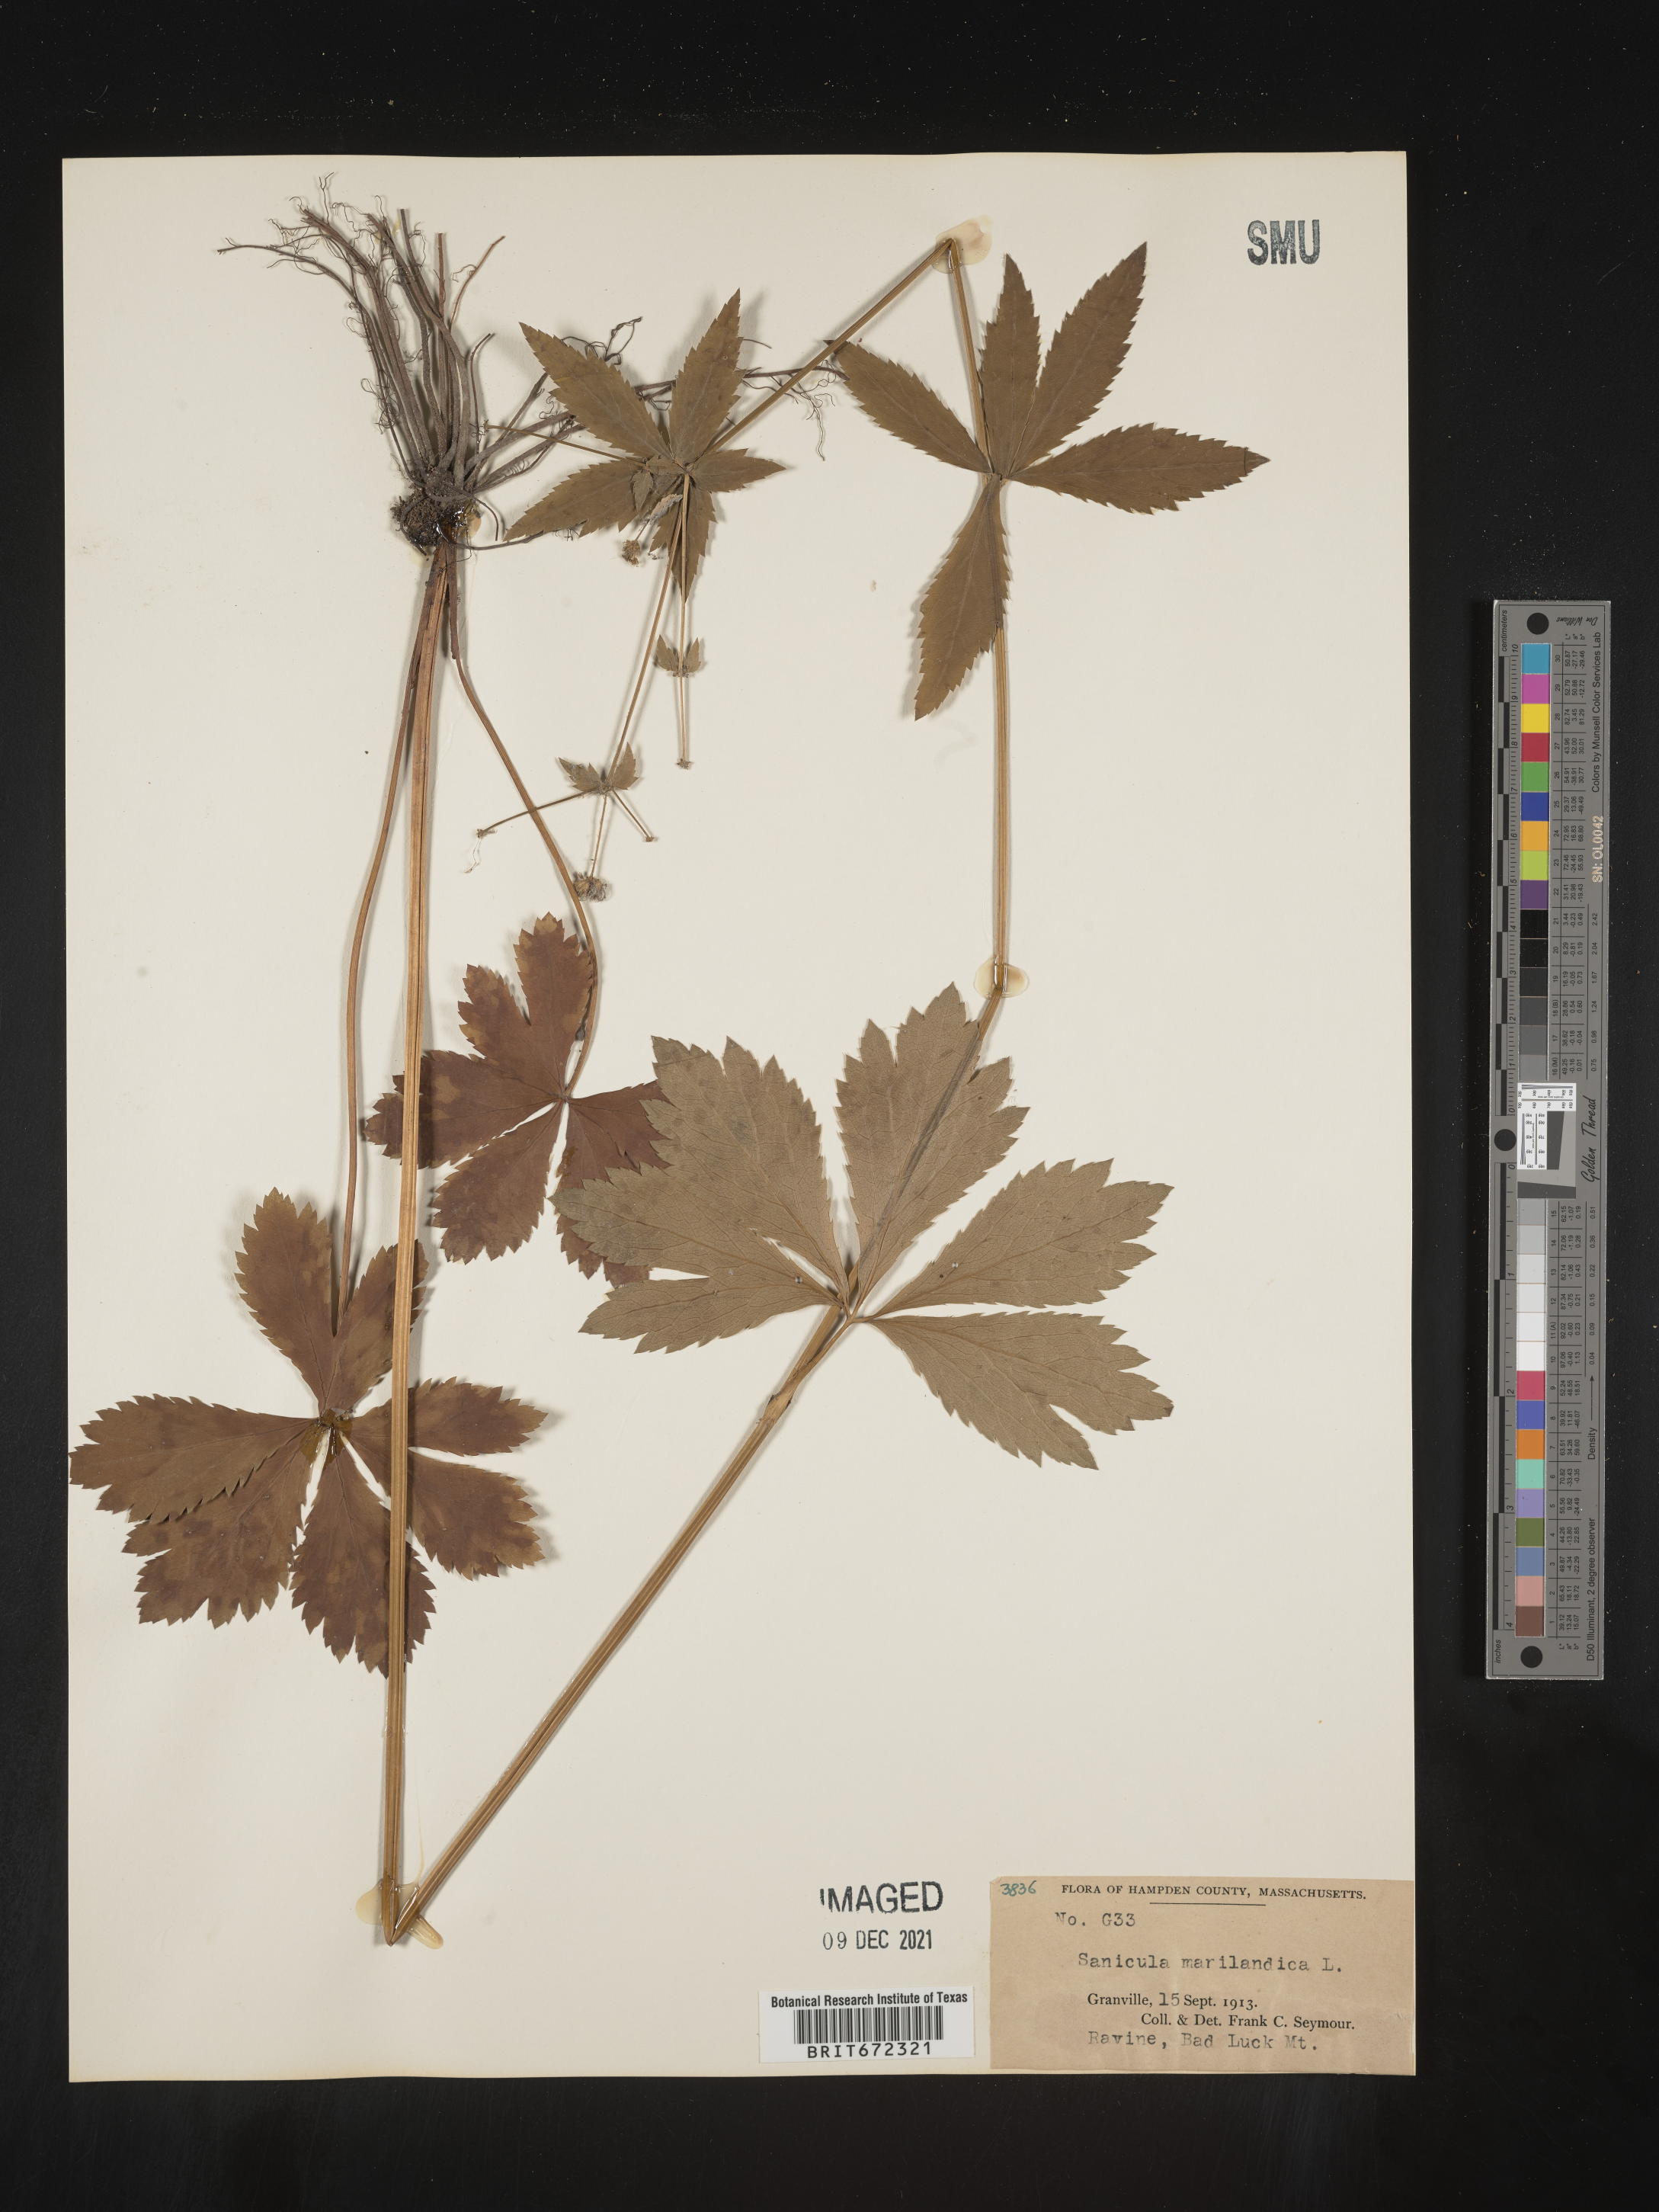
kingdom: Plantae
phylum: Tracheophyta
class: Magnoliopsida
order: Apiales
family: Apiaceae
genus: Sanicula
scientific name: Sanicula marilandica
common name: Black snakeroot
